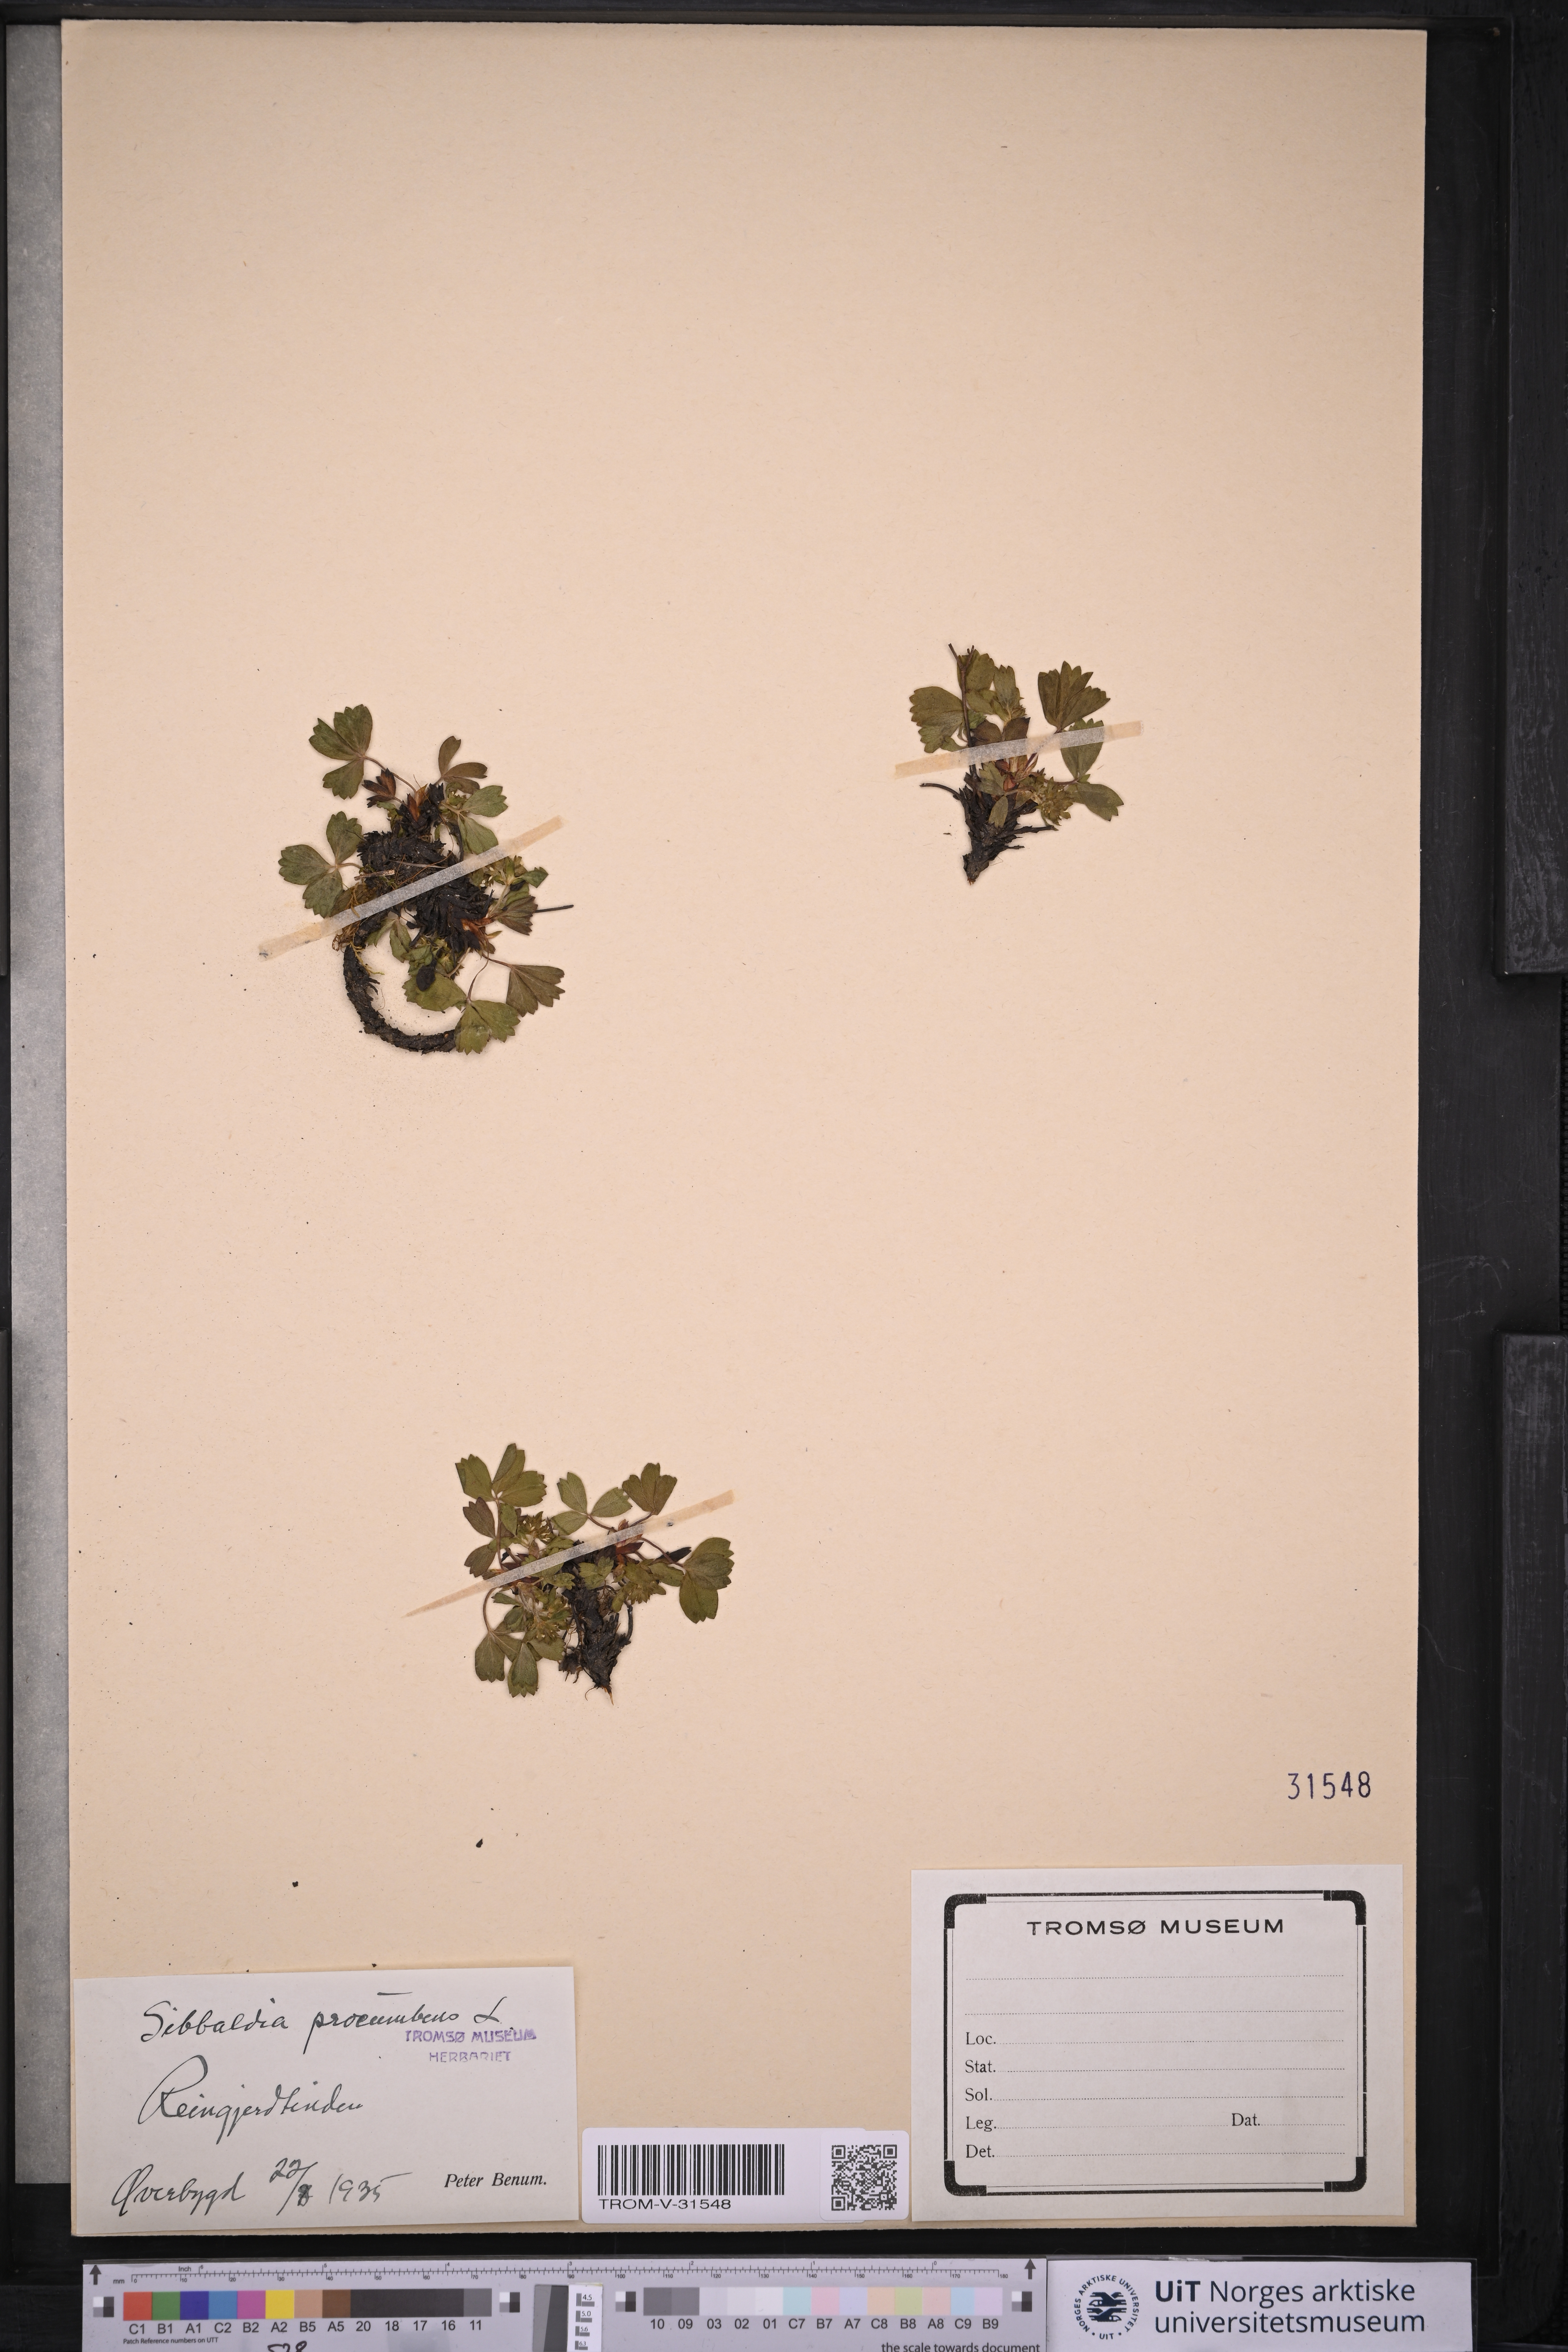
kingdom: Plantae
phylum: Tracheophyta
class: Magnoliopsida
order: Rosales
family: Rosaceae
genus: Sibbaldia
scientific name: Sibbaldia procumbens
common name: Creeping sibbaldia
